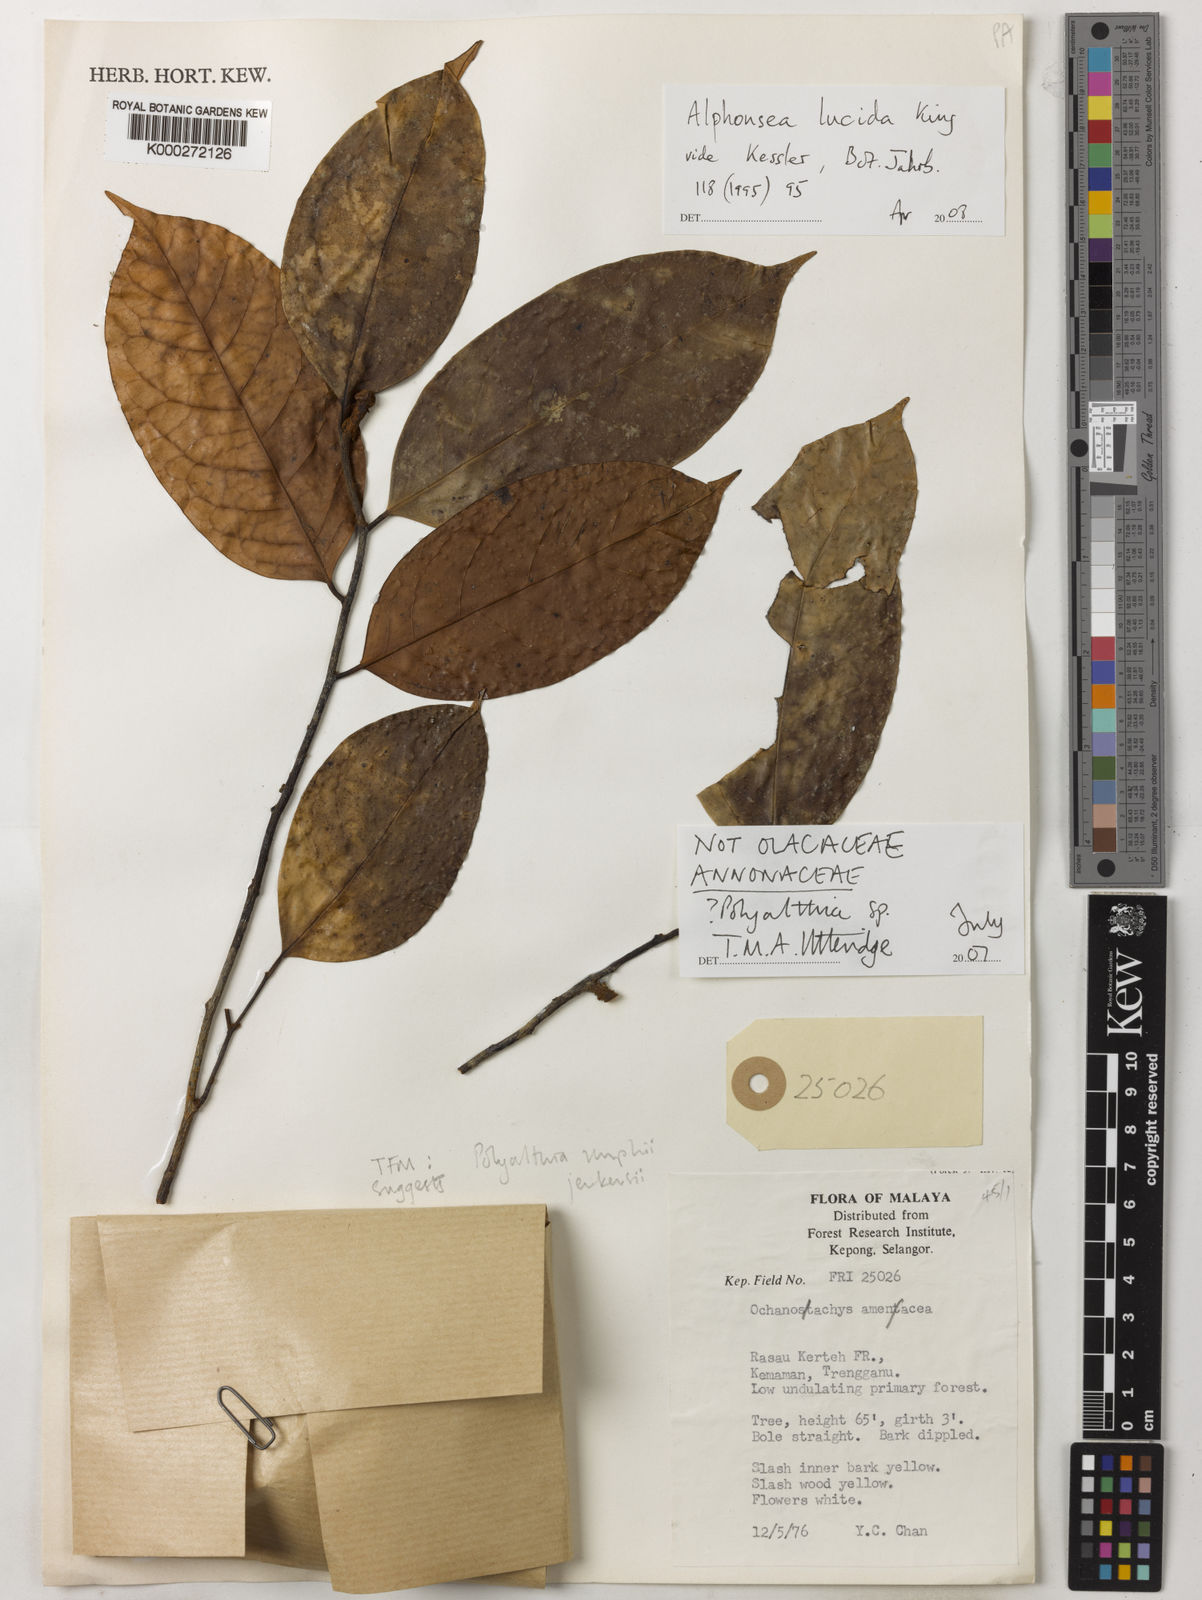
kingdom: Plantae
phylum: Tracheophyta
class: Magnoliopsida
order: Magnoliales
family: Annonaceae
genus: Polyalthia
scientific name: Polyalthia
